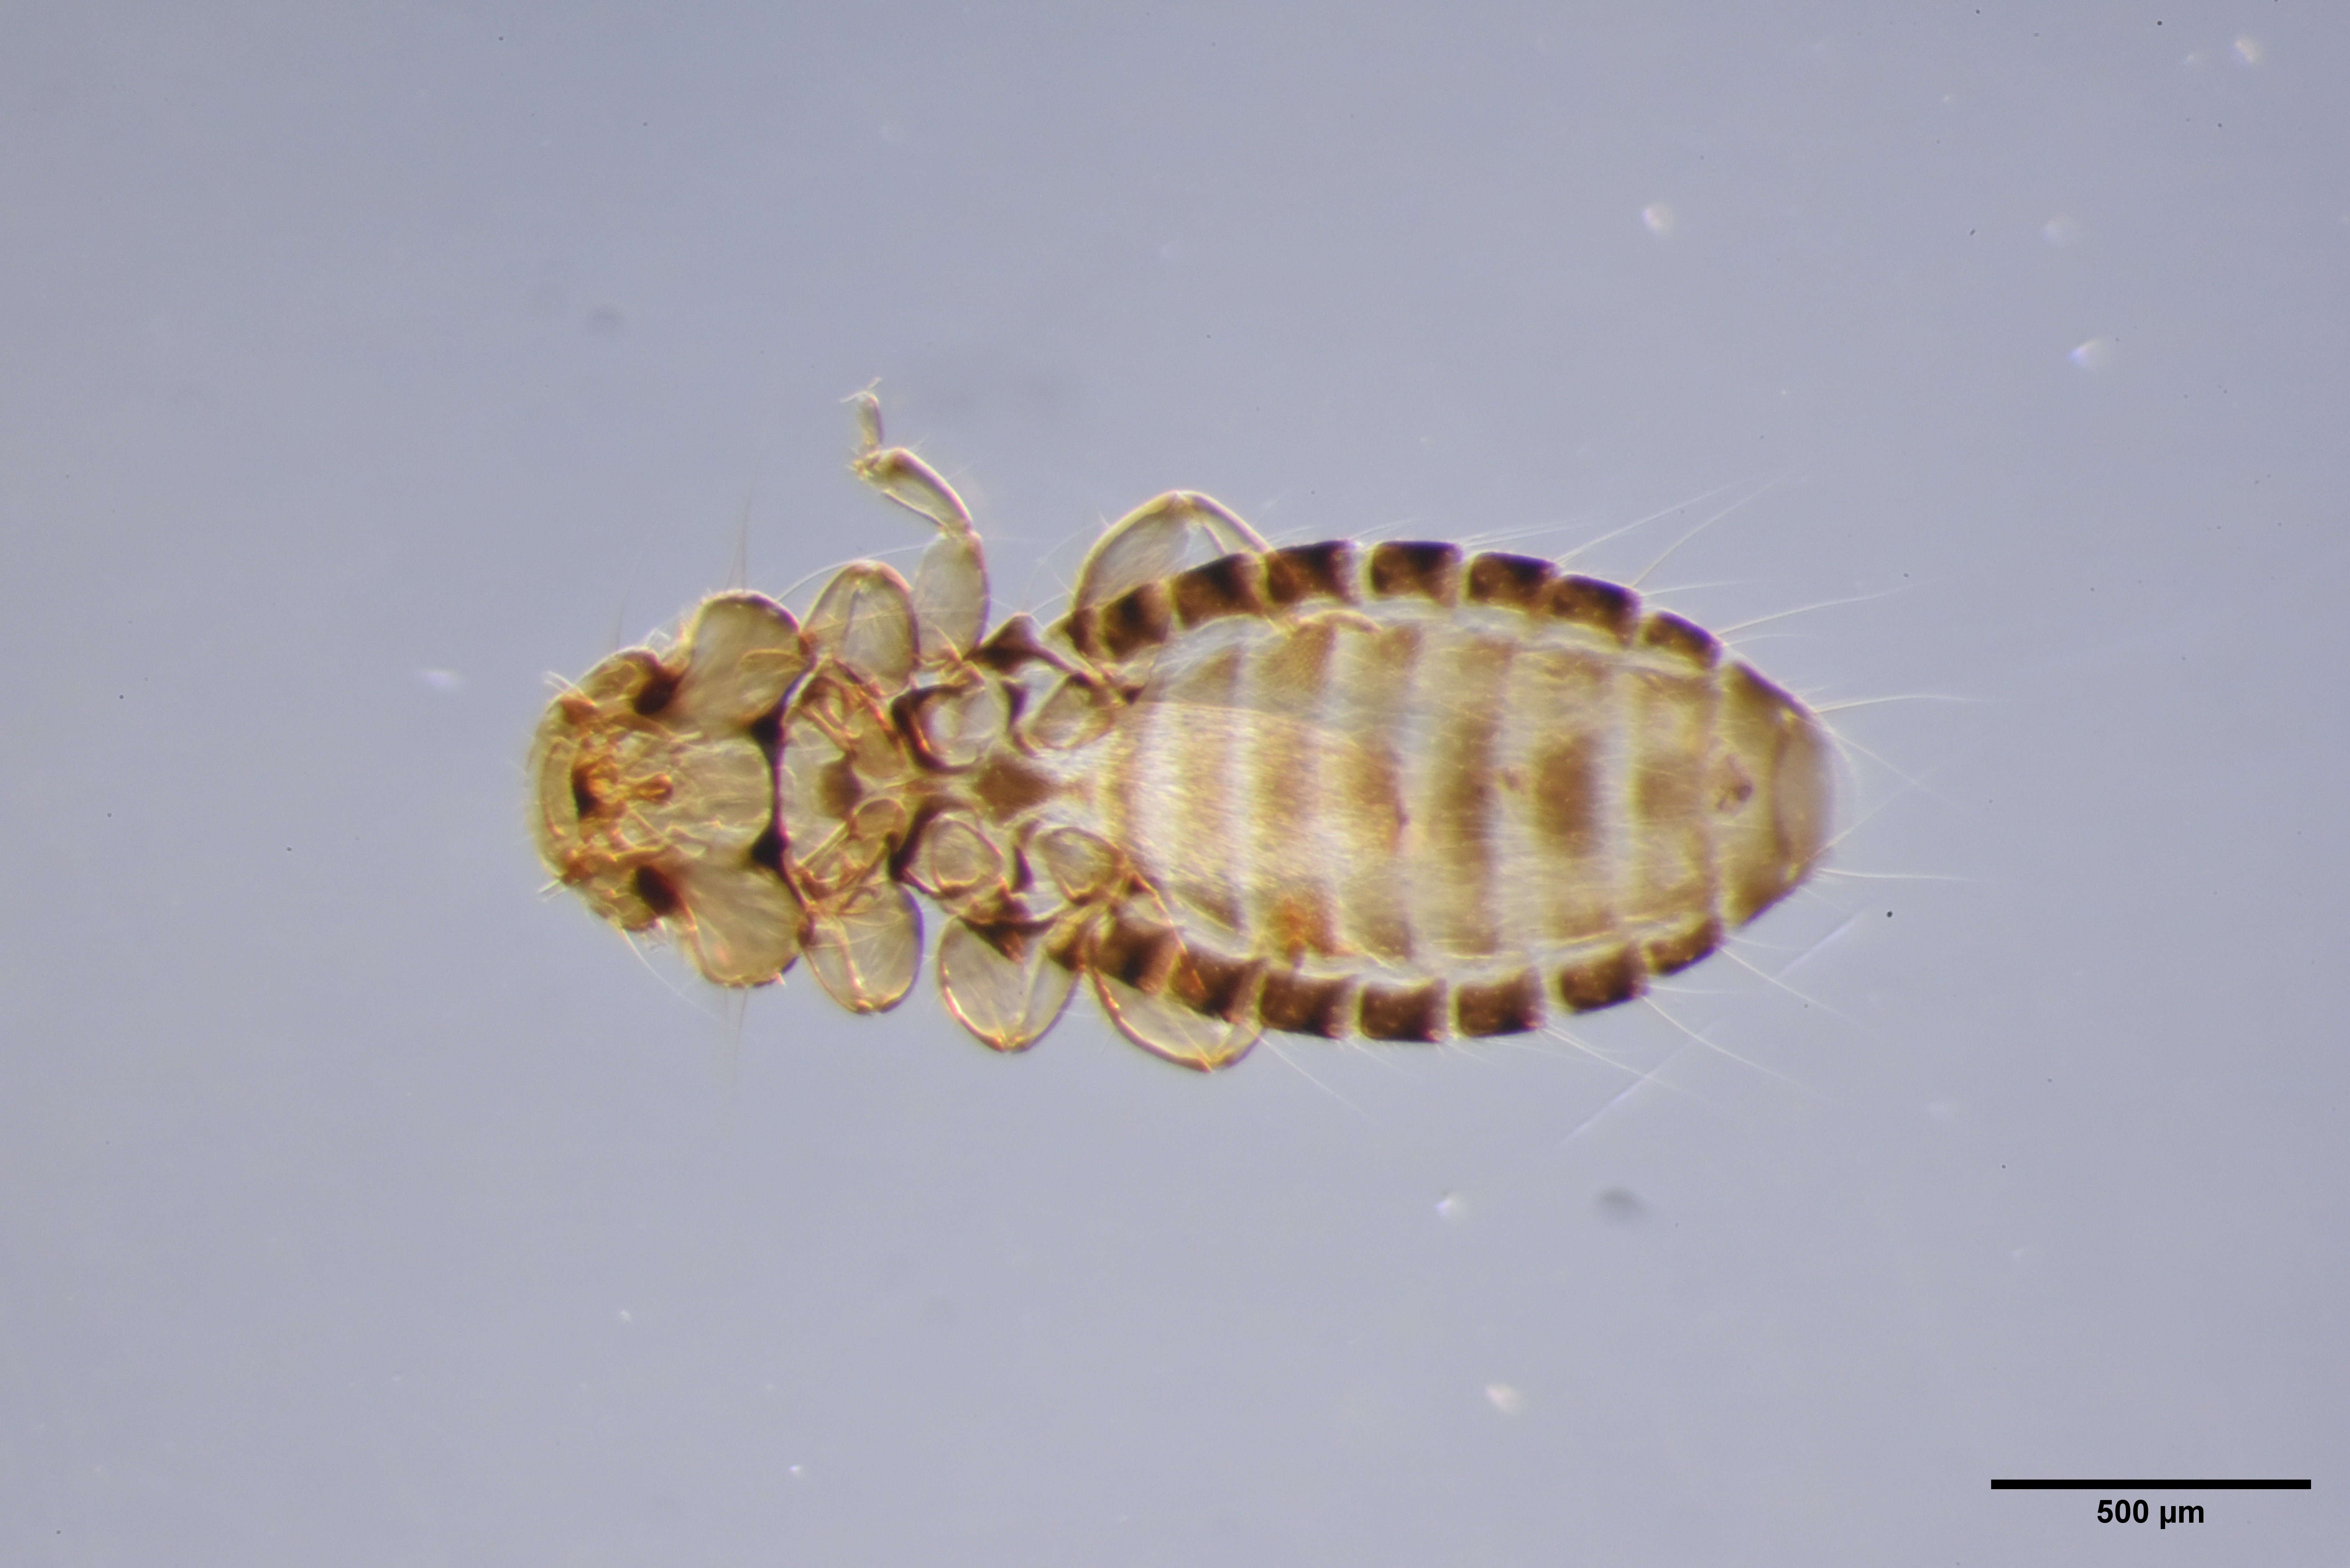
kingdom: Animalia
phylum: Arthropoda
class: Insecta
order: Psocodea
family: Ancistronidae
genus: Actornithophilus
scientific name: Actornithophilus grandiceps
